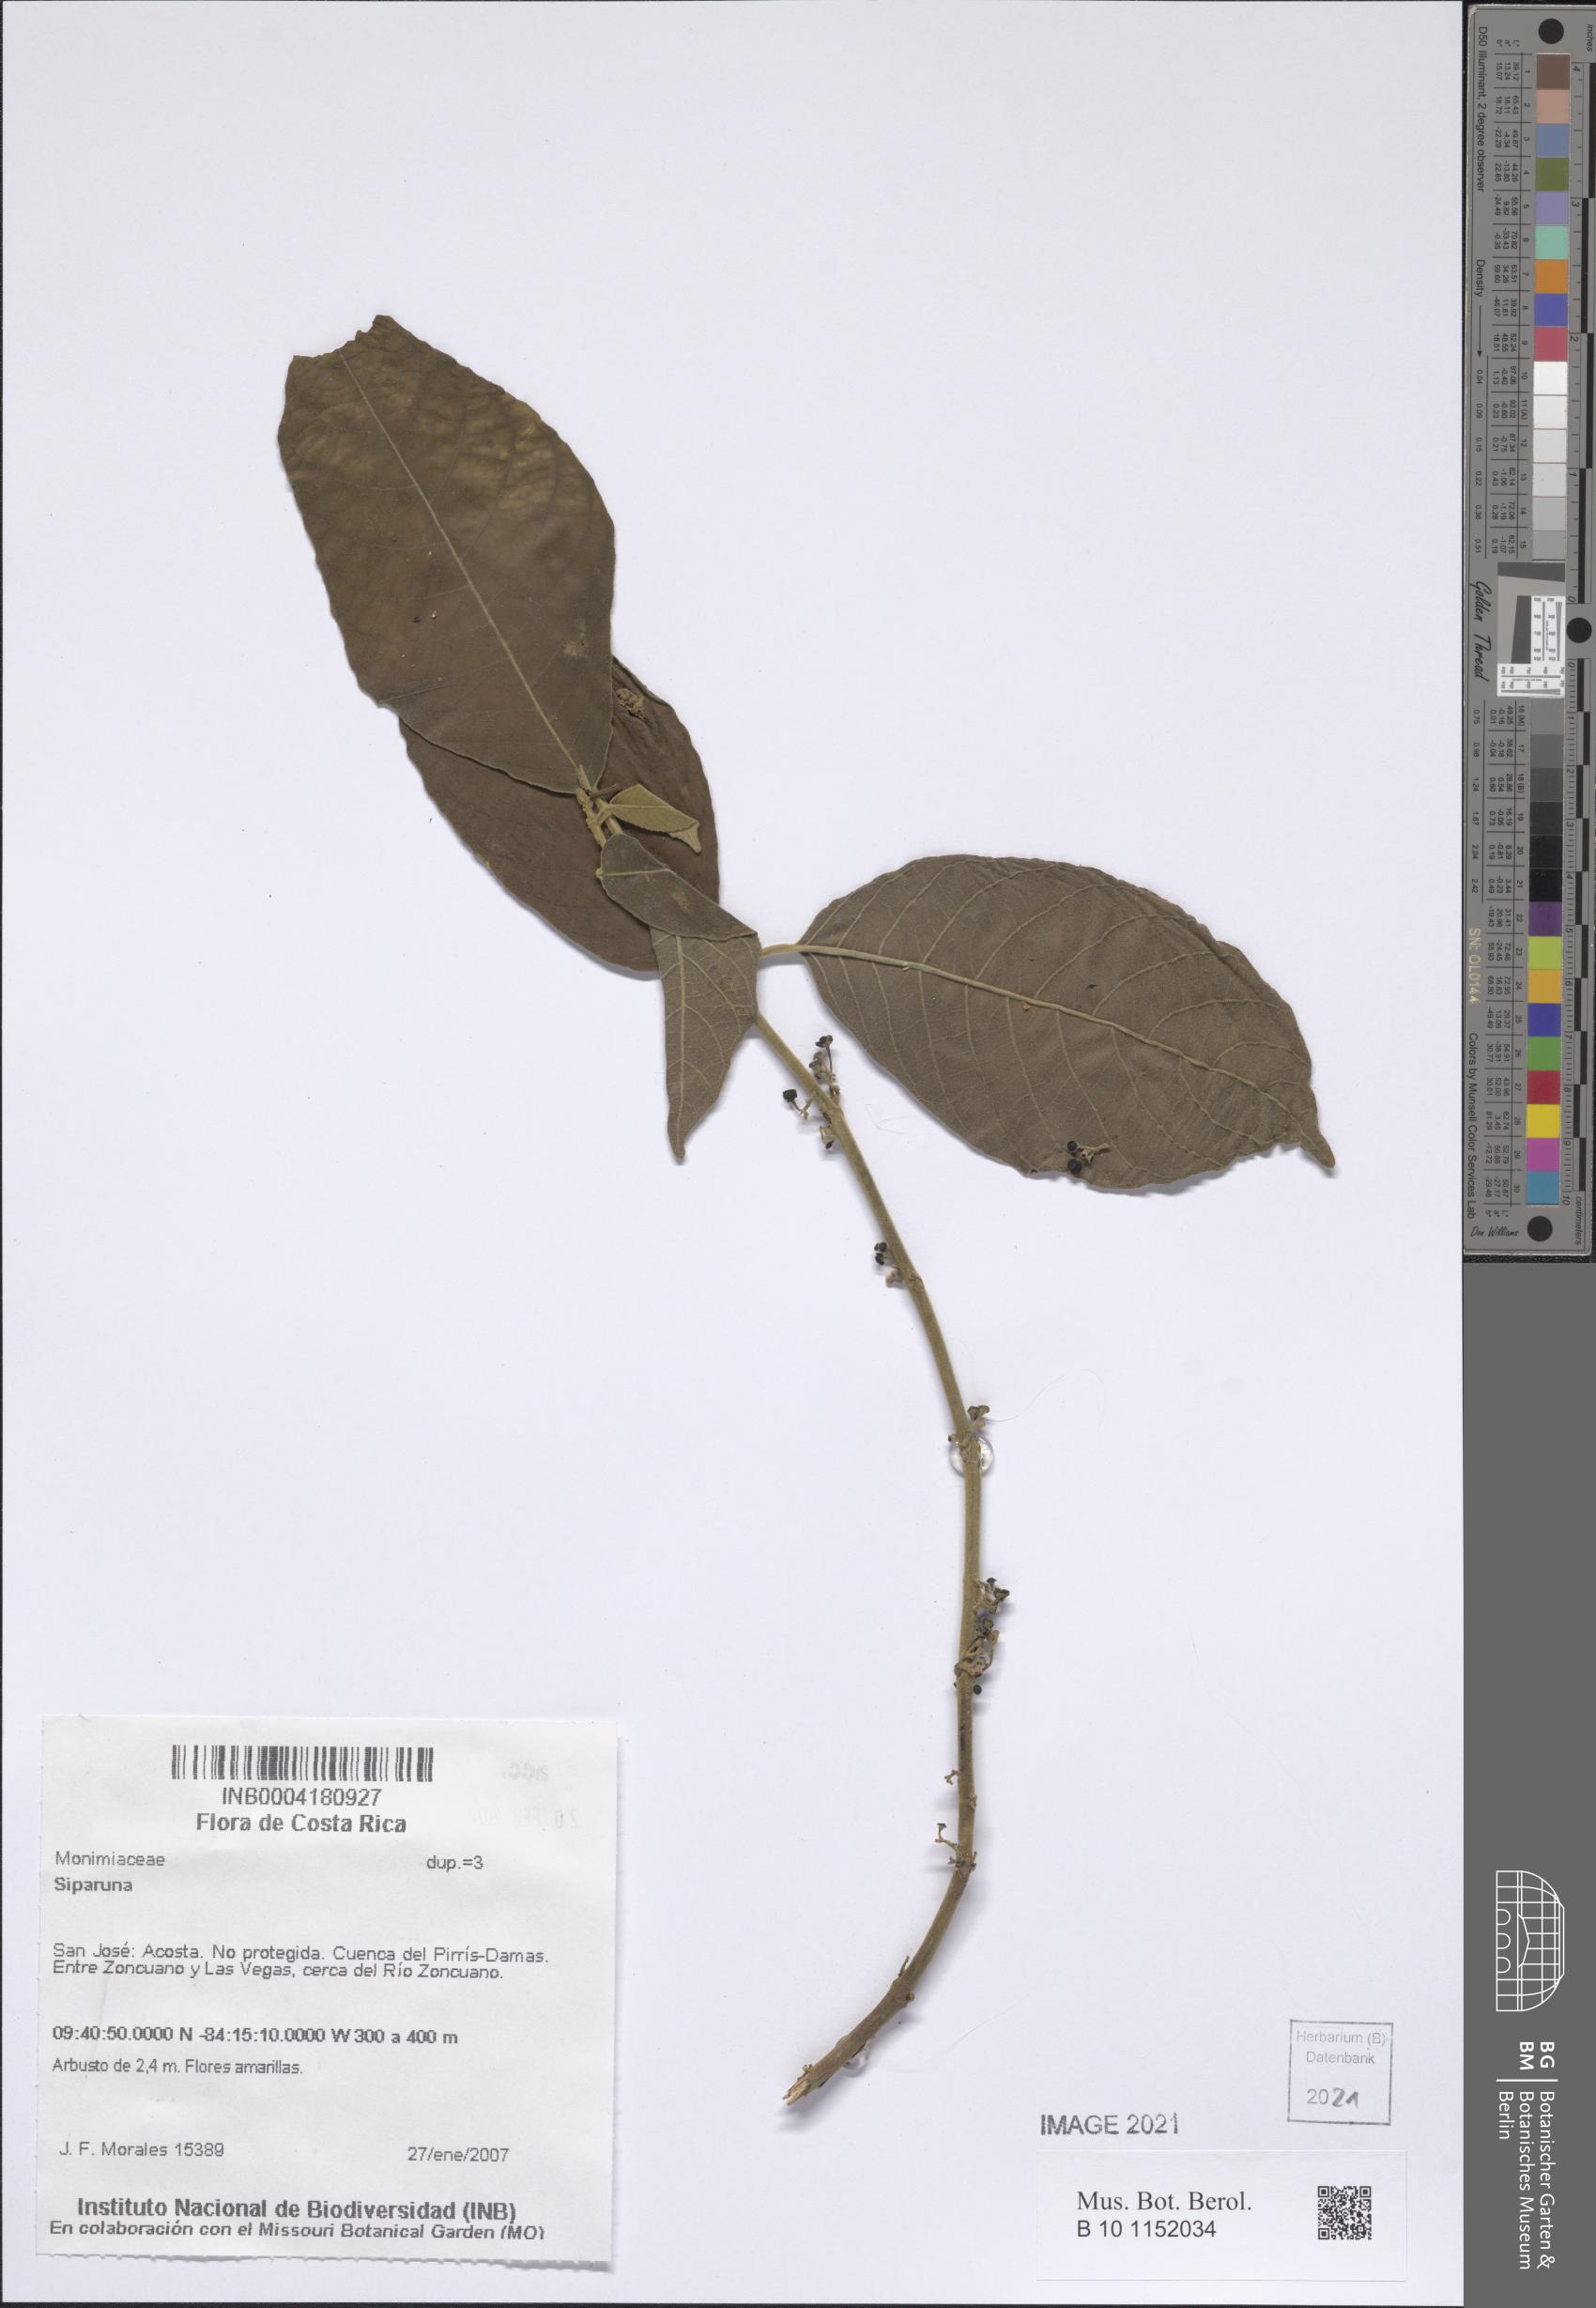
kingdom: Plantae
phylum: Tracheophyta
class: Magnoliopsida
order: Laurales
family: Siparunaceae
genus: Siparuna
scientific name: Siparuna
